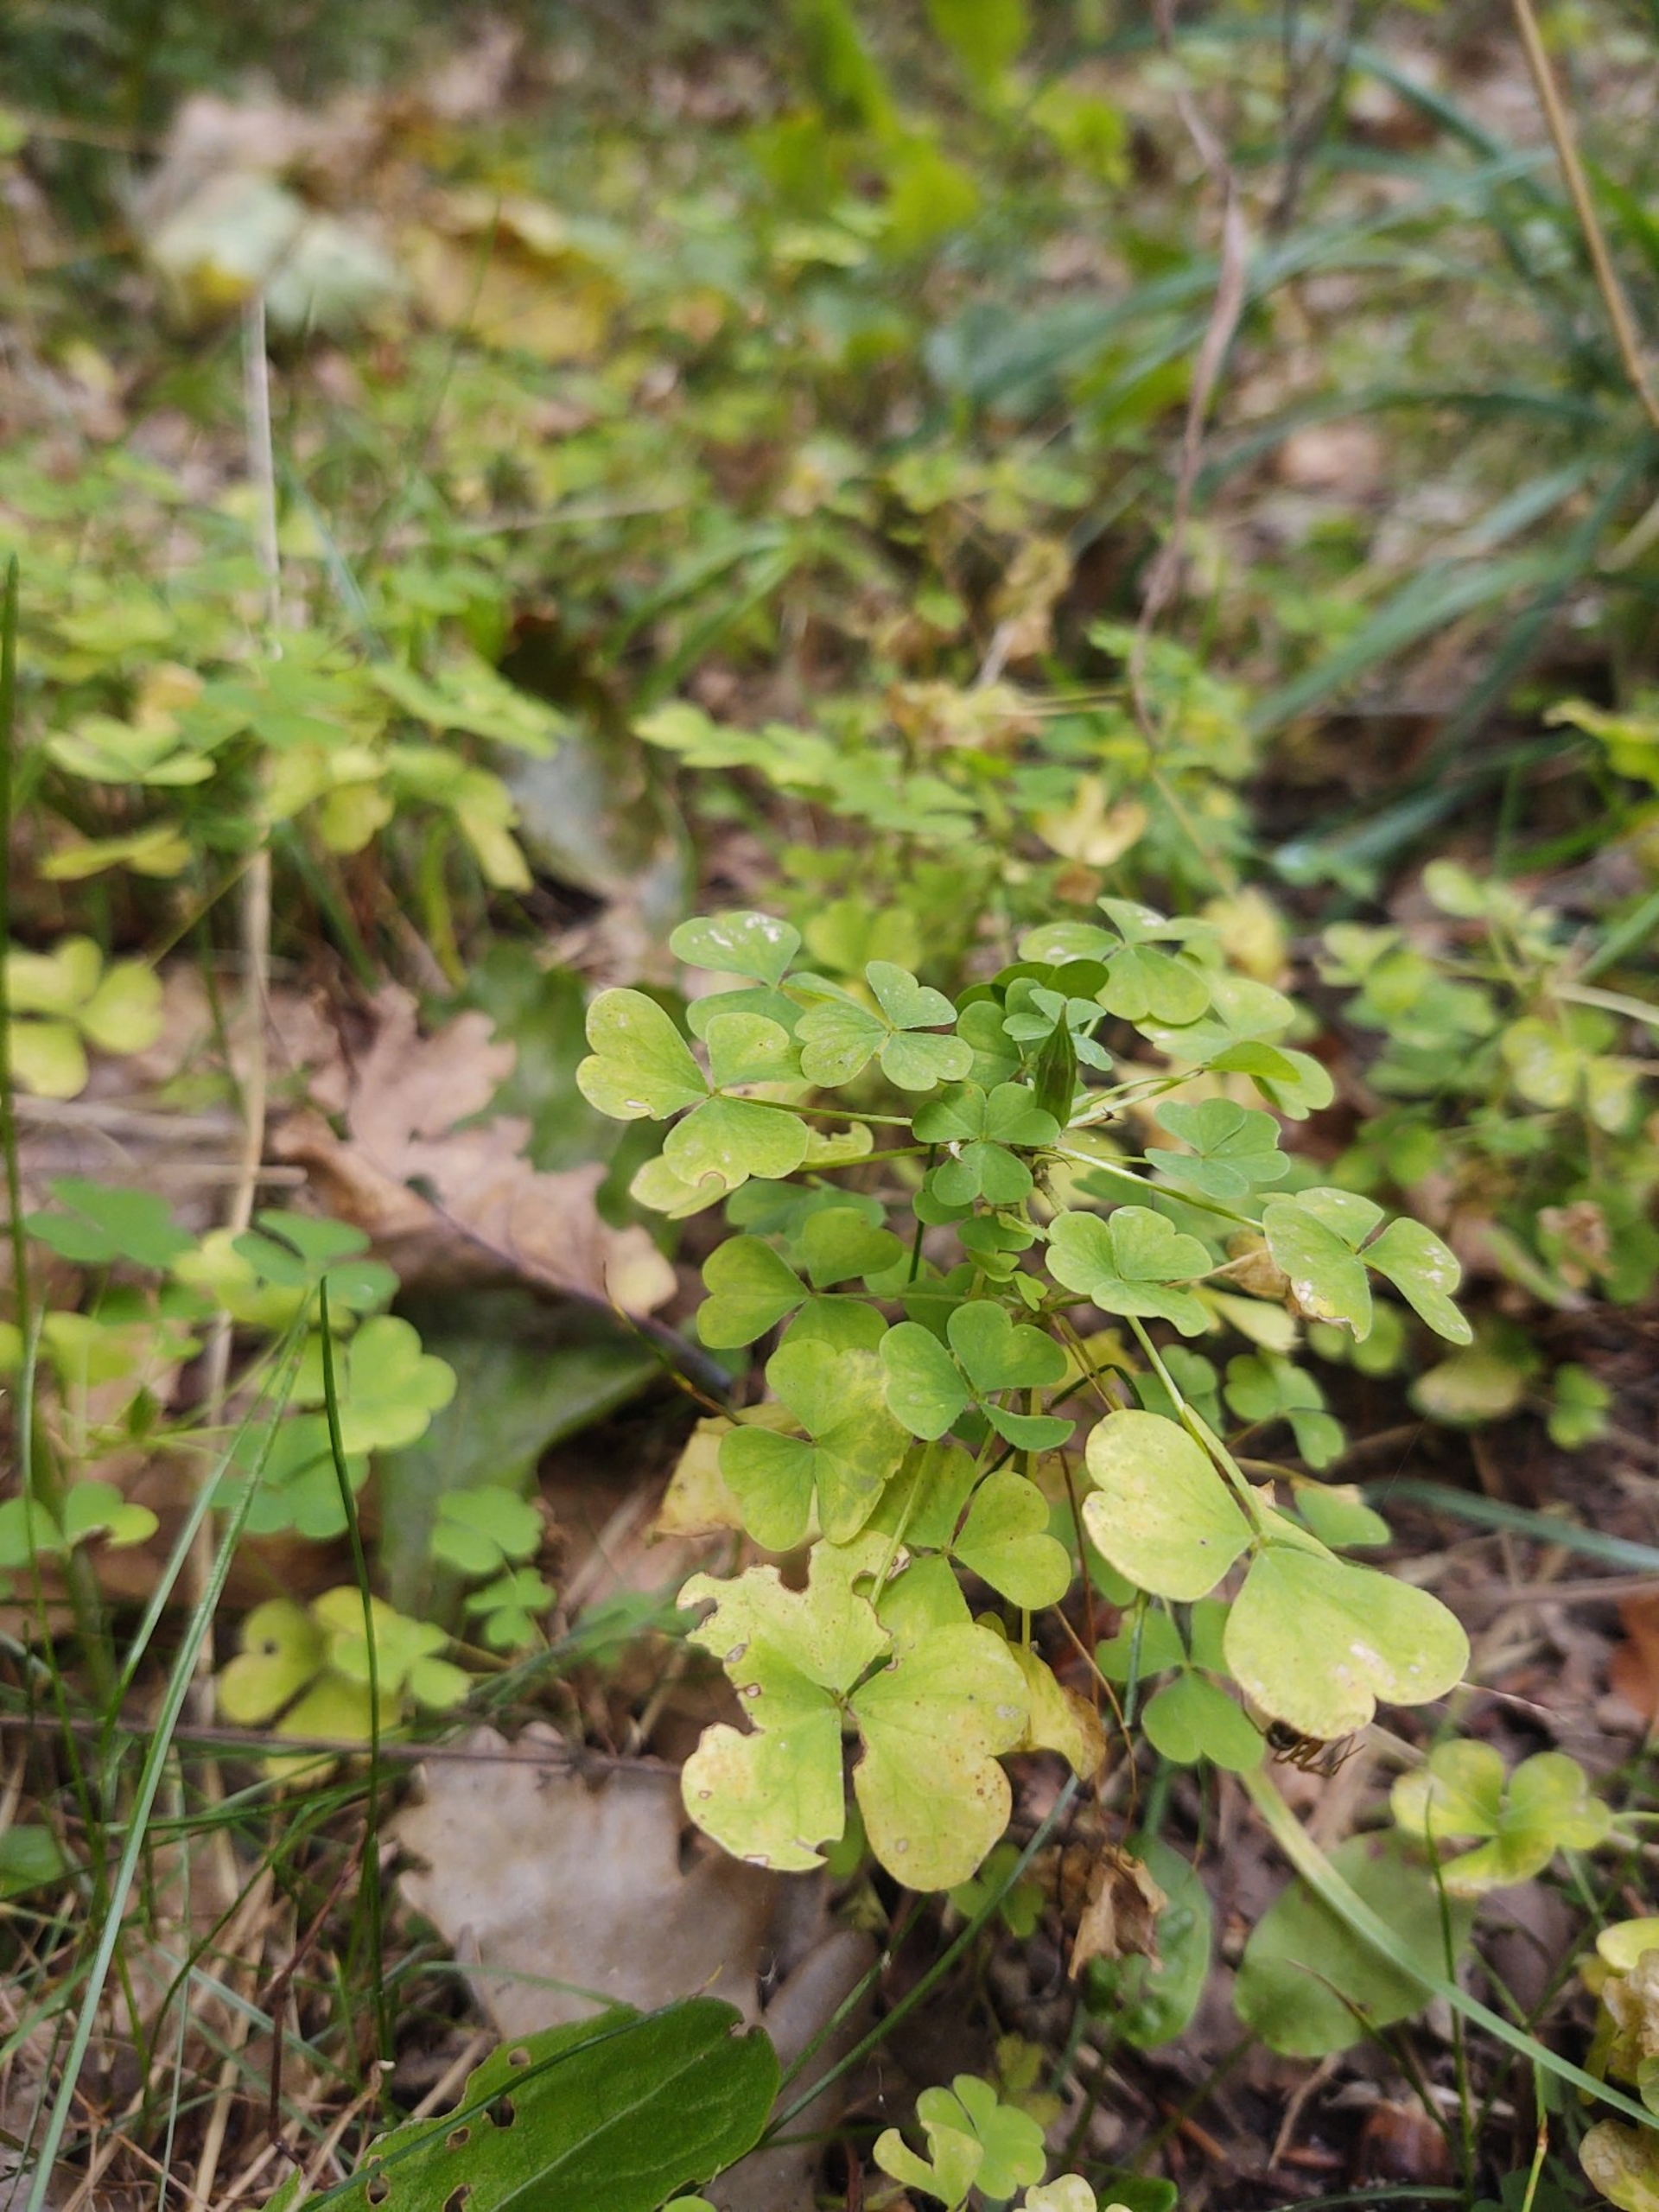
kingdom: Plantae
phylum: Tracheophyta
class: Magnoliopsida
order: Oxalidales
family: Oxalidaceae
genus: Oxalis
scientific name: Oxalis stricta
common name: Rank surkløver
